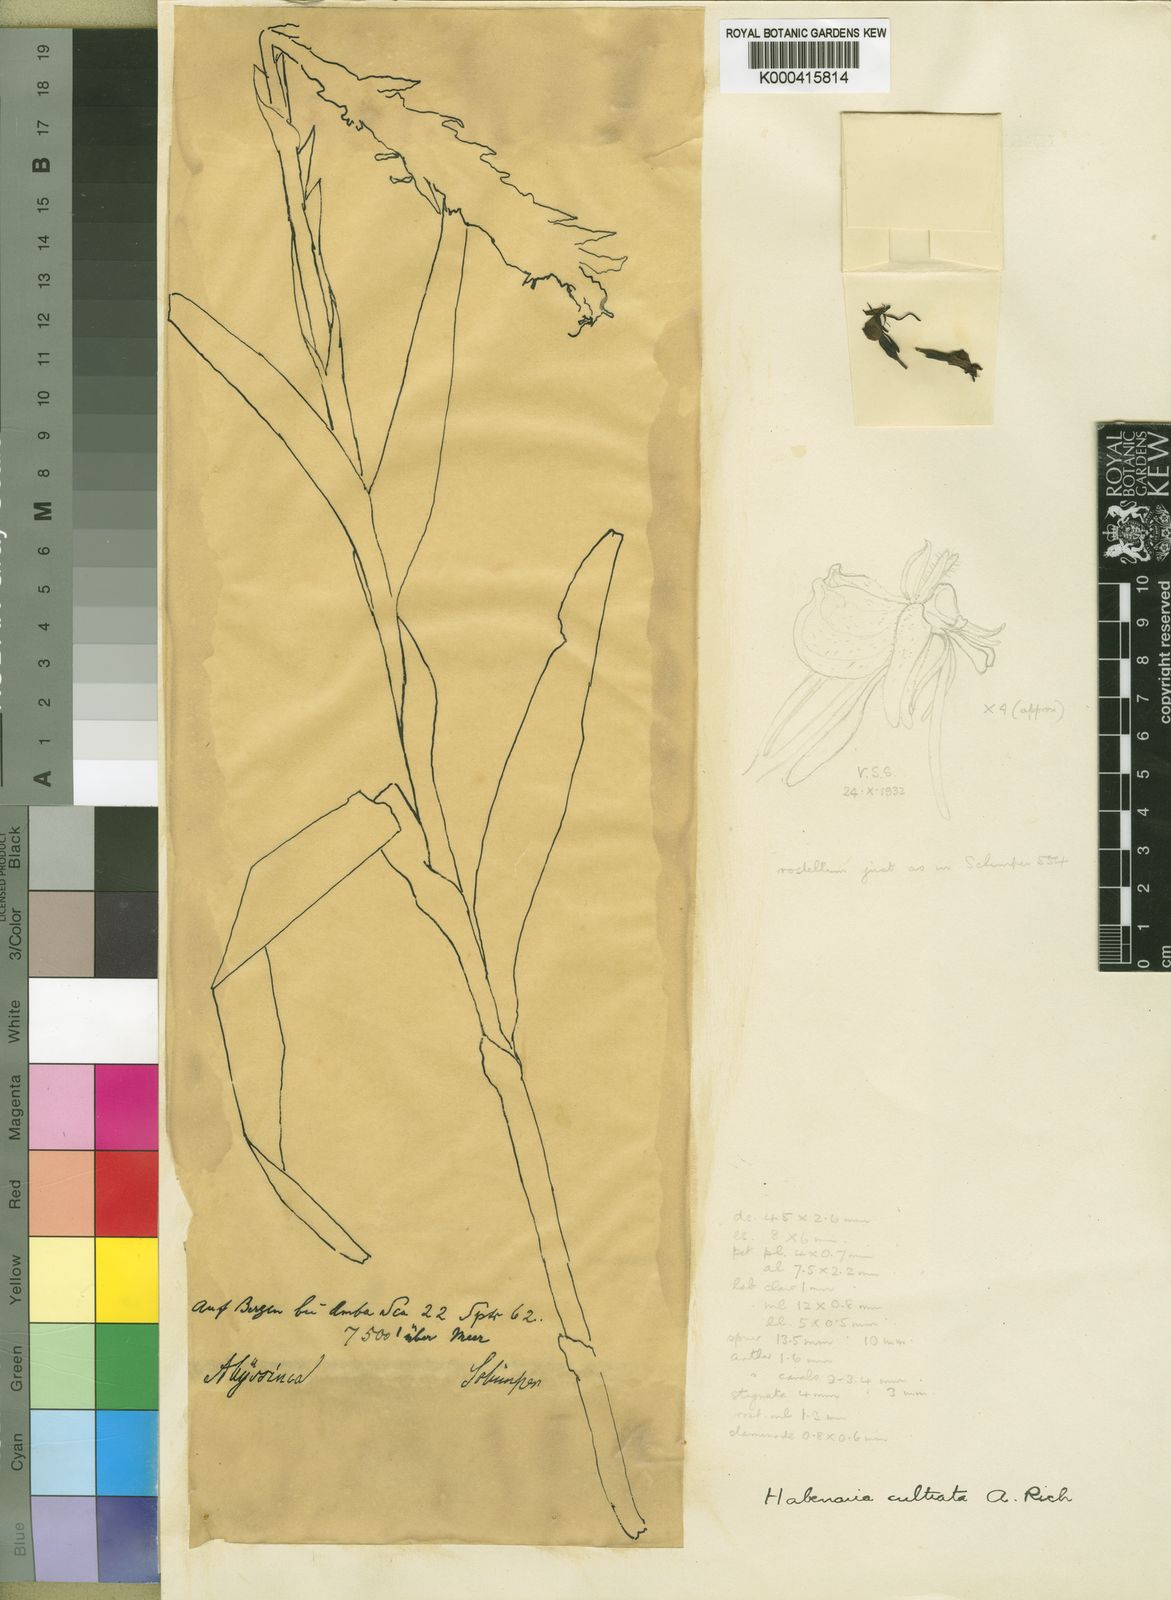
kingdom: Plantae
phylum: Tracheophyta
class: Liliopsida
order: Asparagales
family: Orchidaceae
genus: Habenaria
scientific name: Habenaria cultrata
